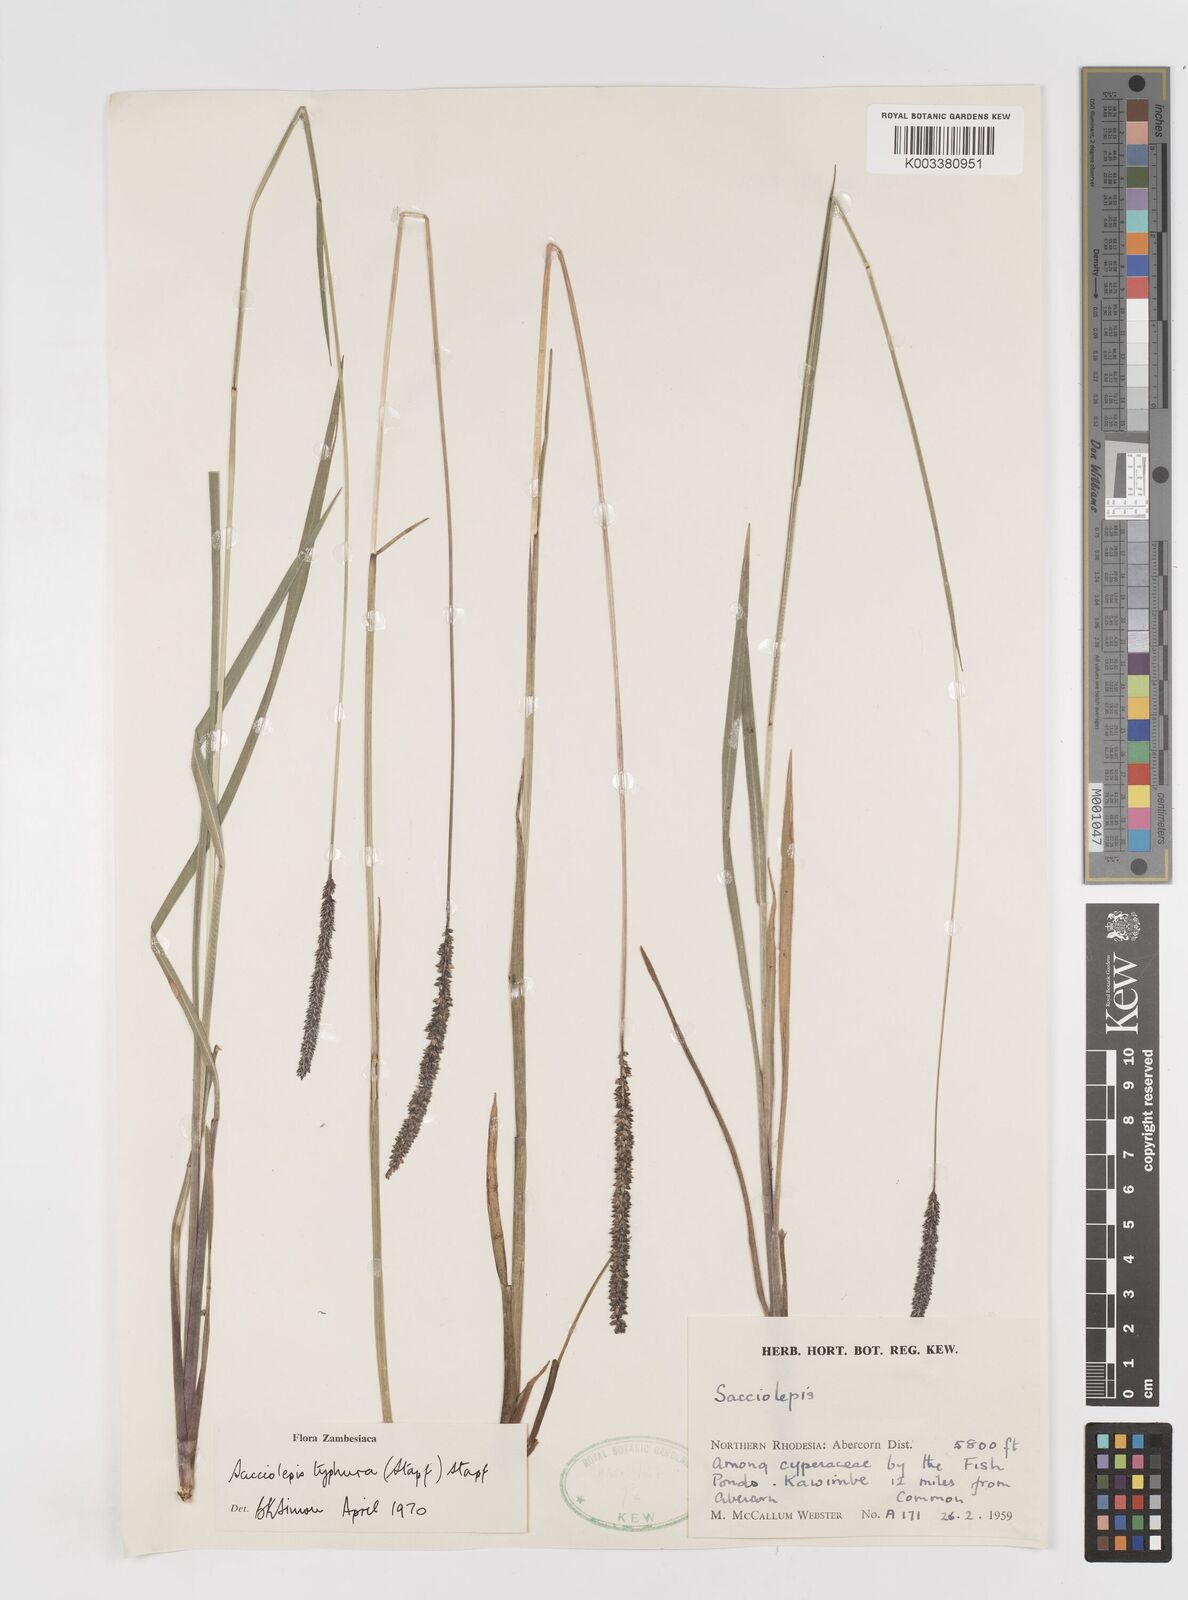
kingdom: Plantae
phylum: Tracheophyta
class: Liliopsida
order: Poales
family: Poaceae
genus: Sacciolepis
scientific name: Sacciolepis typhura
